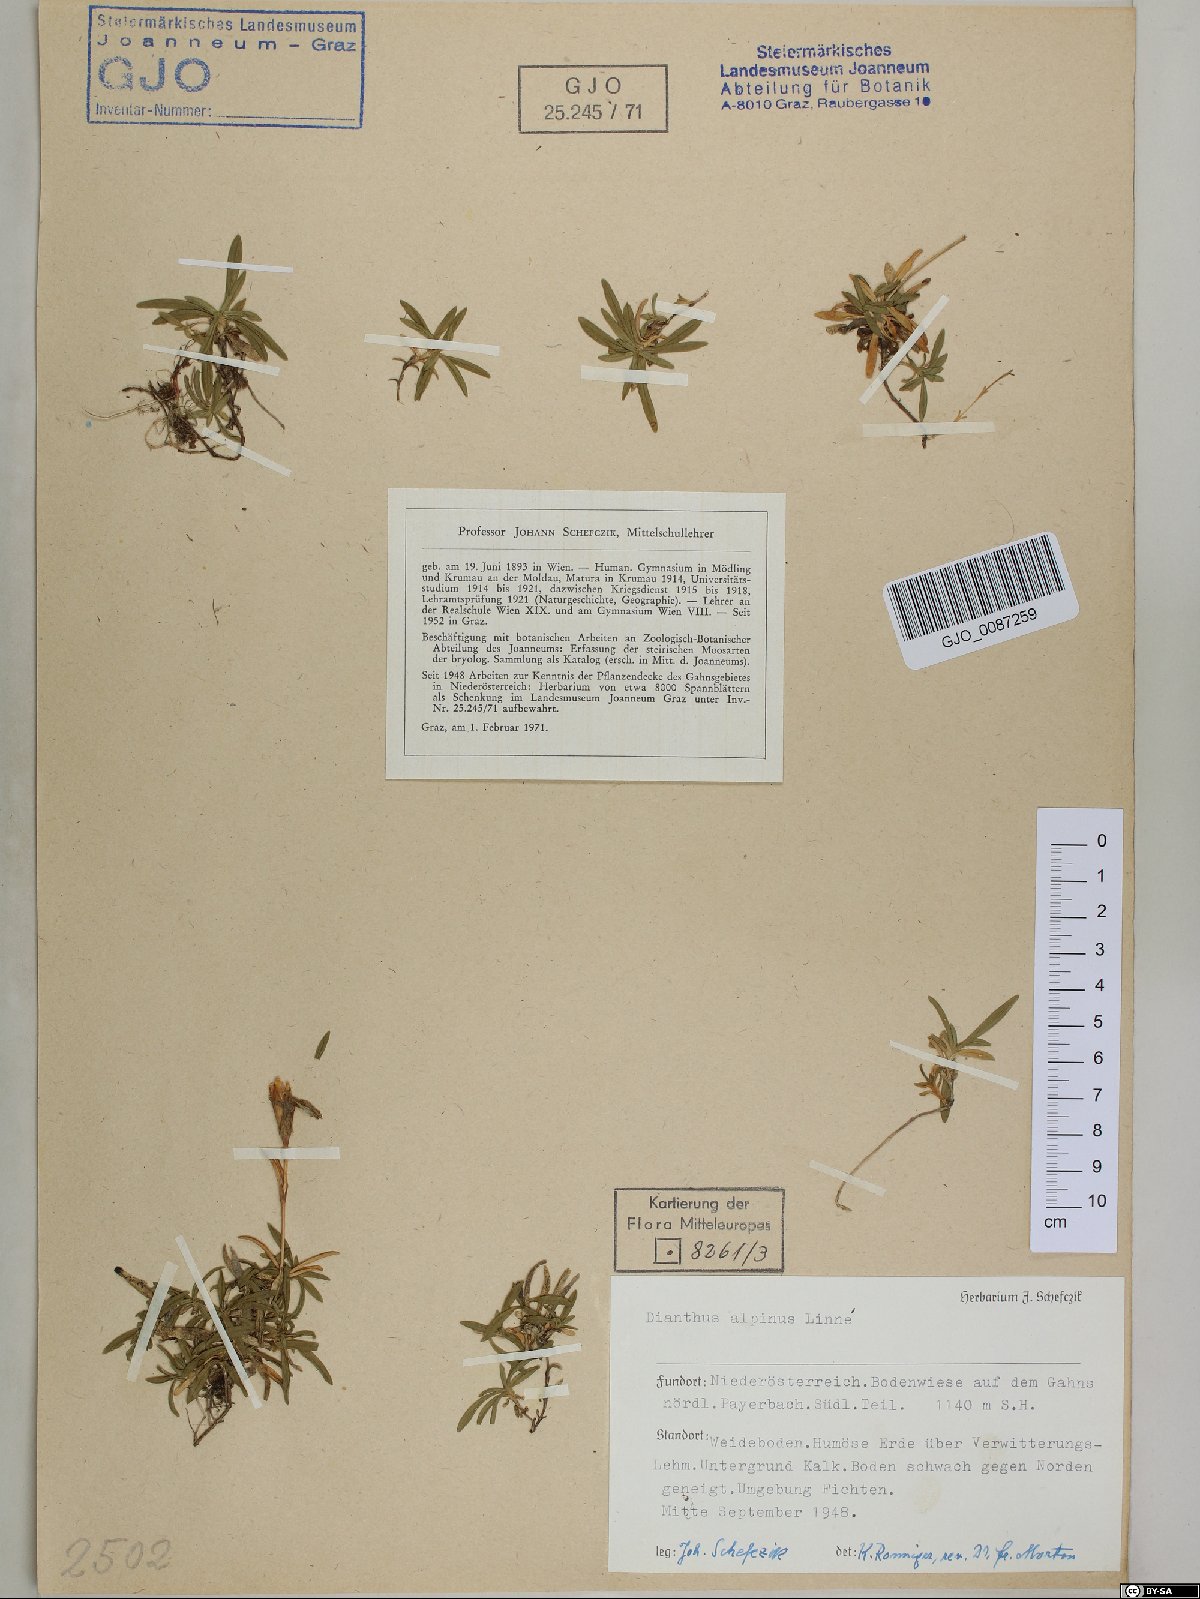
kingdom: Plantae
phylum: Tracheophyta
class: Magnoliopsida
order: Caryophyllales
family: Caryophyllaceae
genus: Dianthus
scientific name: Dianthus alpinus
